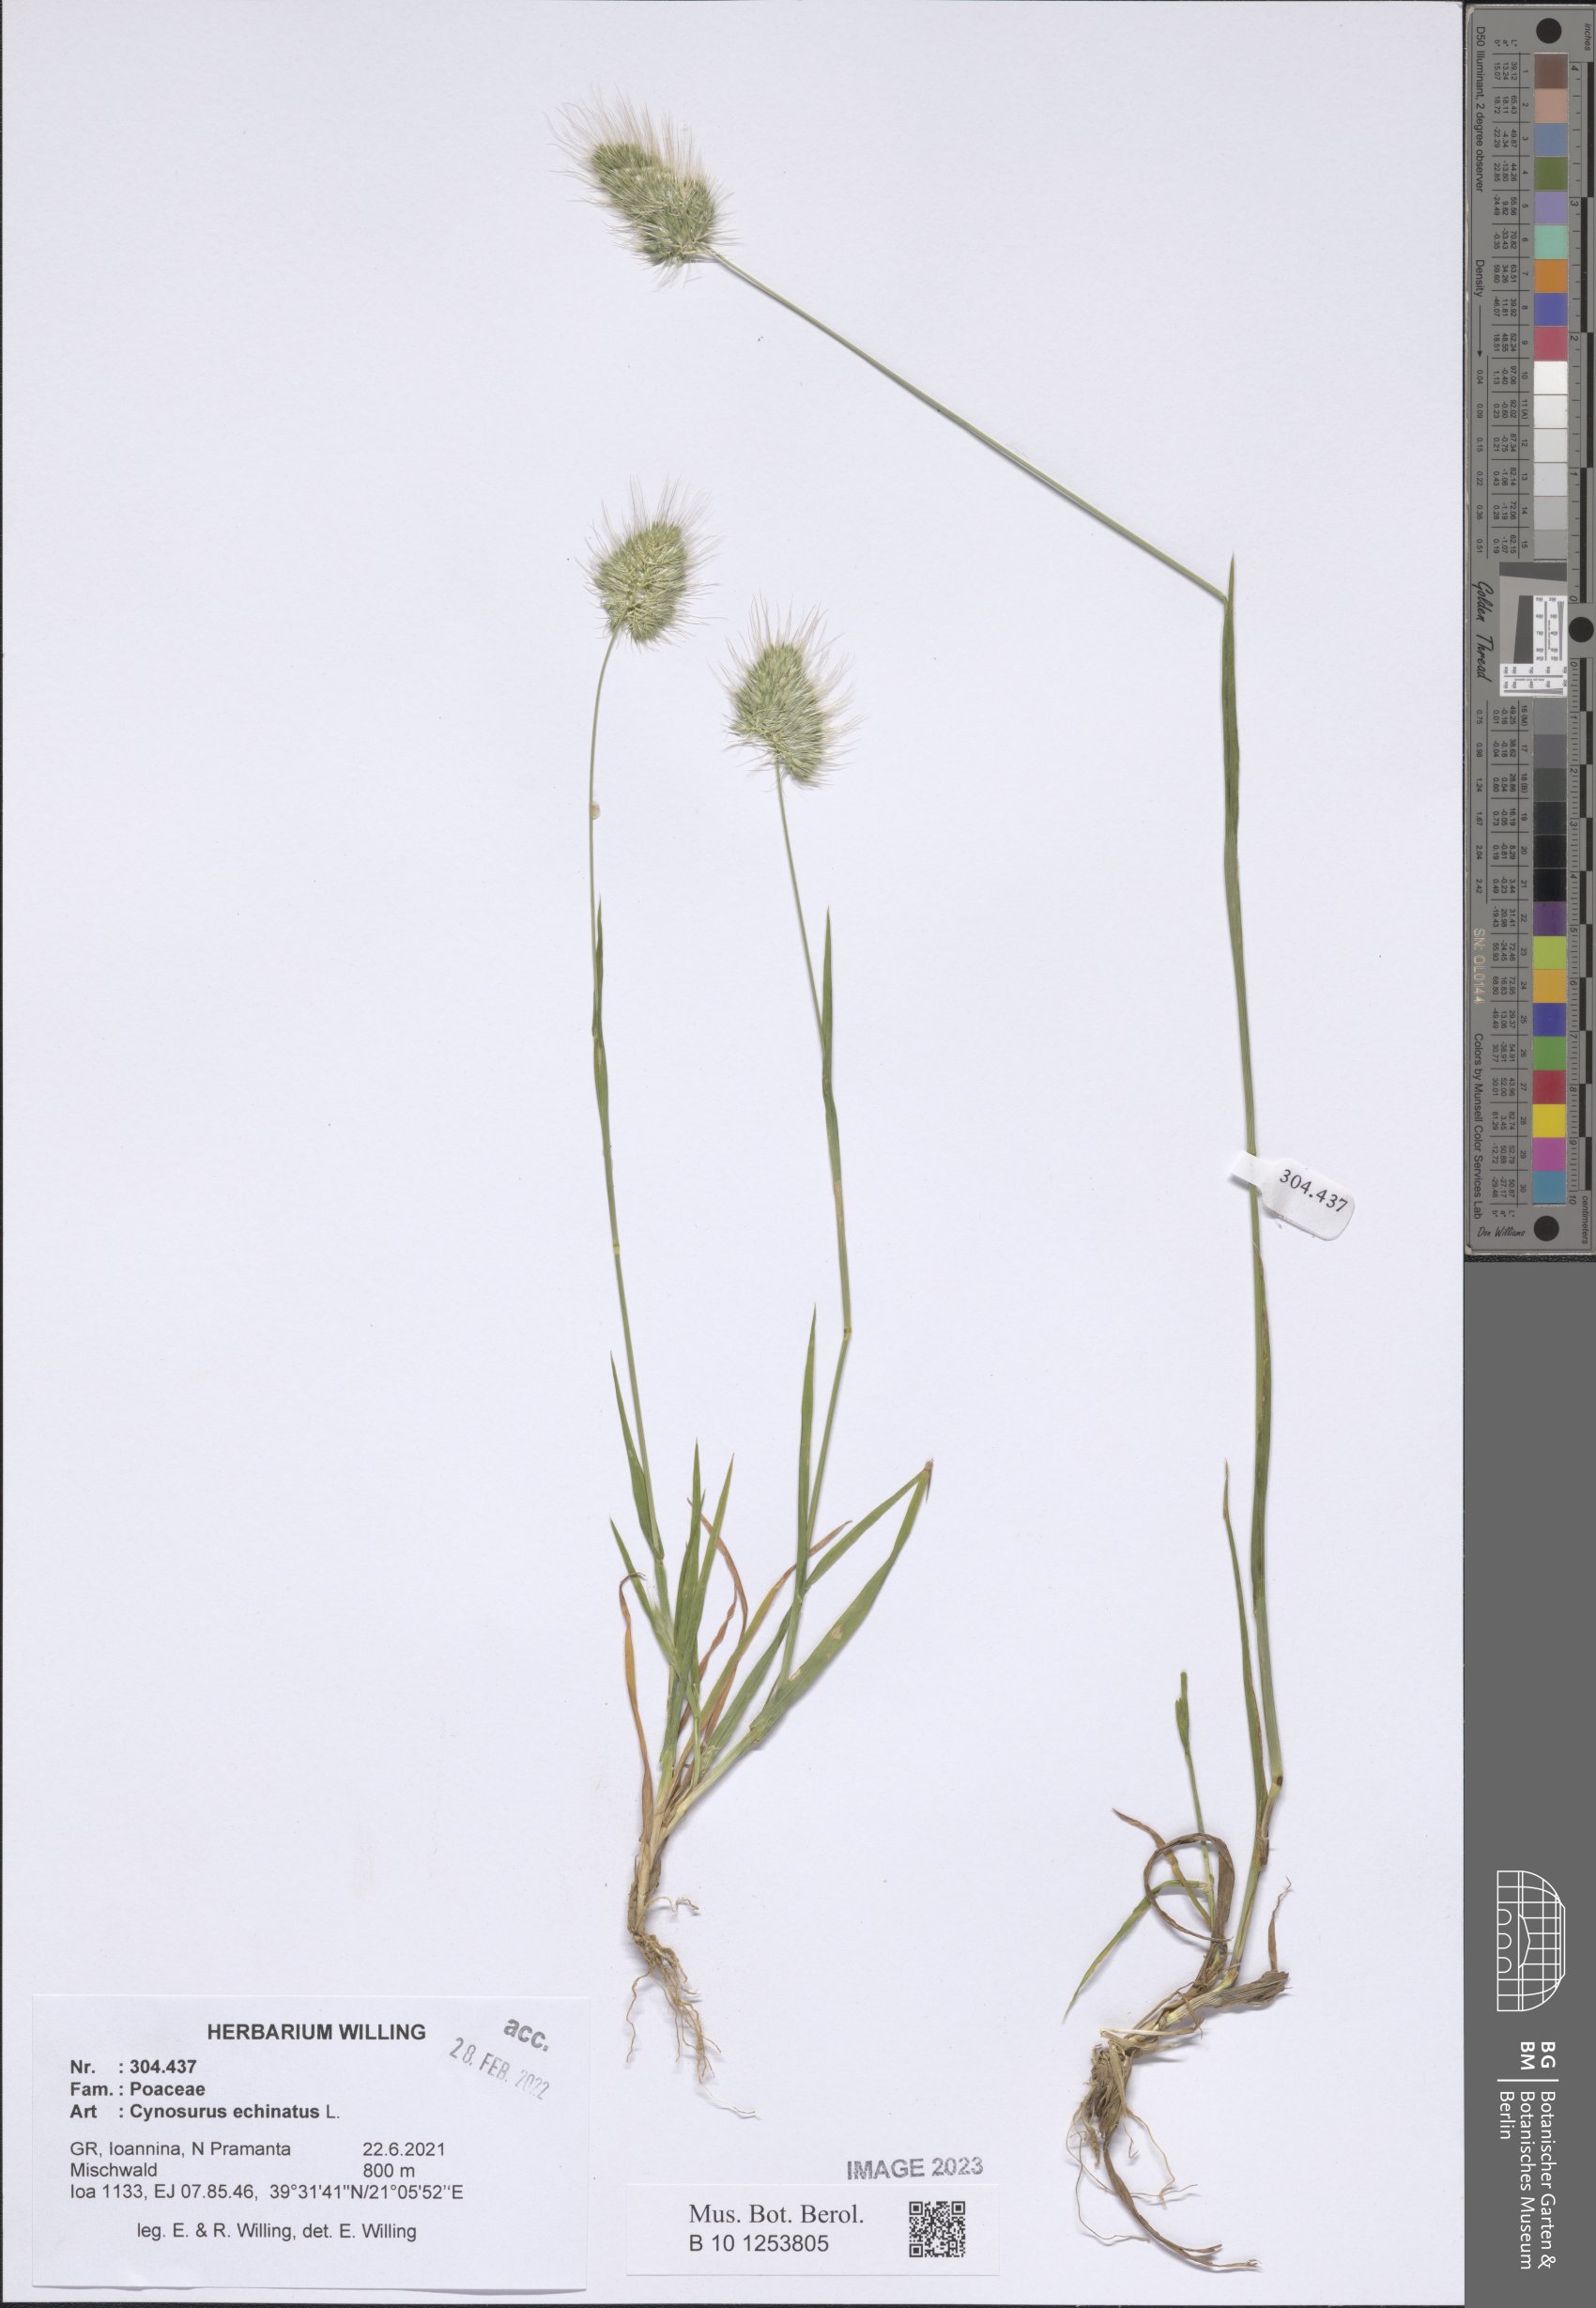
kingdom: Plantae
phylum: Tracheophyta
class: Liliopsida
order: Poales
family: Poaceae
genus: Cynosurus
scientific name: Cynosurus echinatus
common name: Rough dog's-tail
